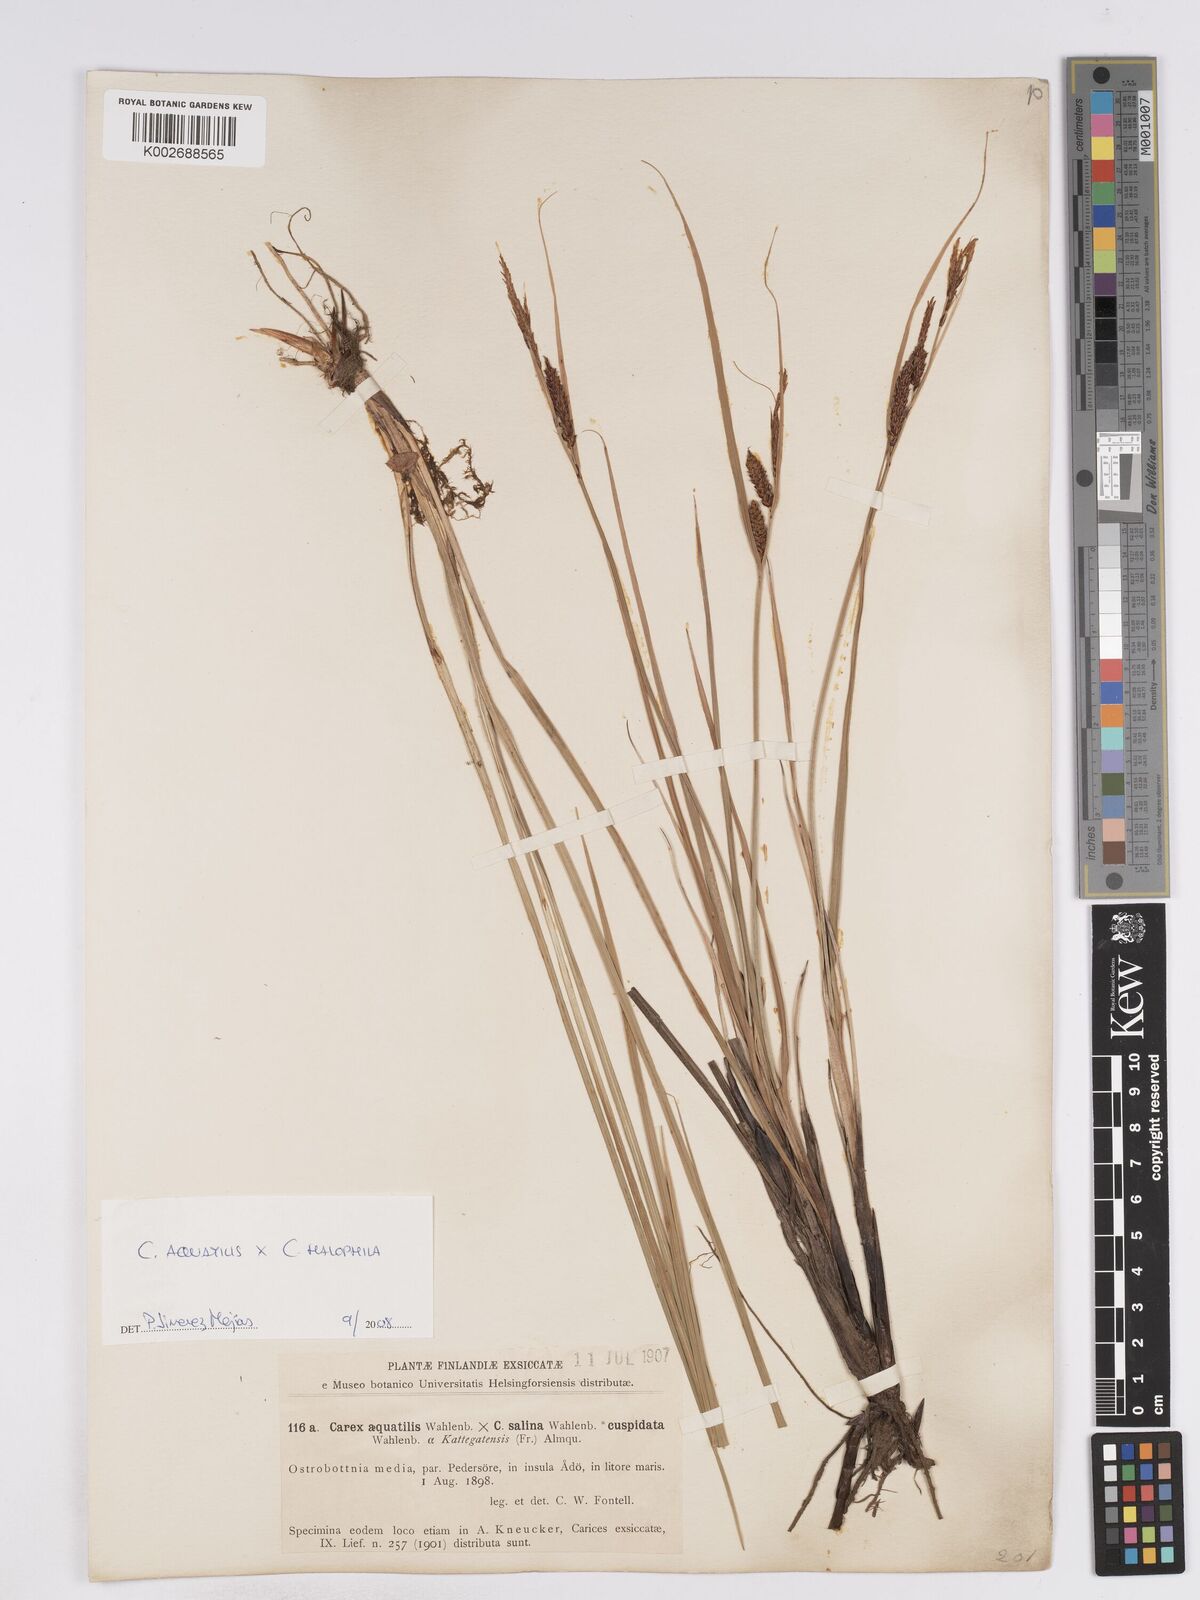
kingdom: Plantae
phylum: Tracheophyta
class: Liliopsida
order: Poales
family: Cyperaceae
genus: Carex
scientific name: Carex recta
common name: Estuarine sedge
